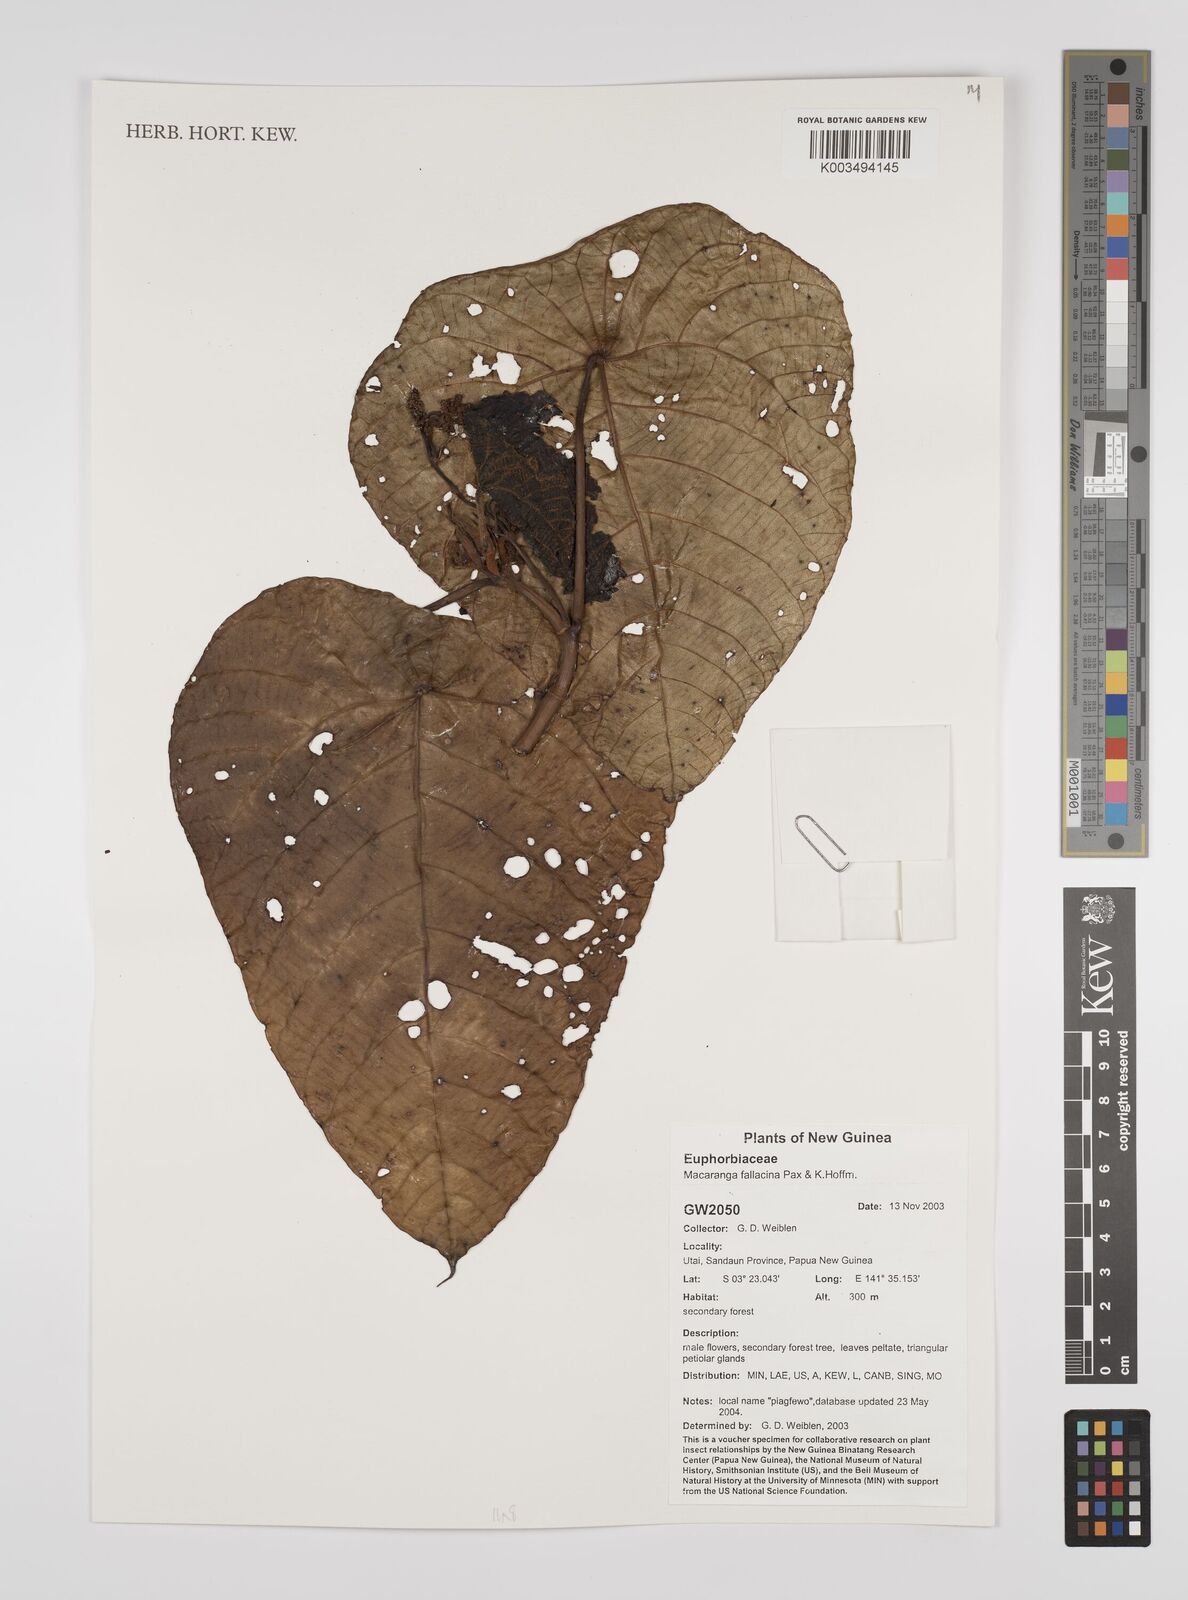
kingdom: Plantae
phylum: Tracheophyta
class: Magnoliopsida
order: Malpighiales
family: Euphorbiaceae
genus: Macaranga
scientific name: Macaranga fallacina
